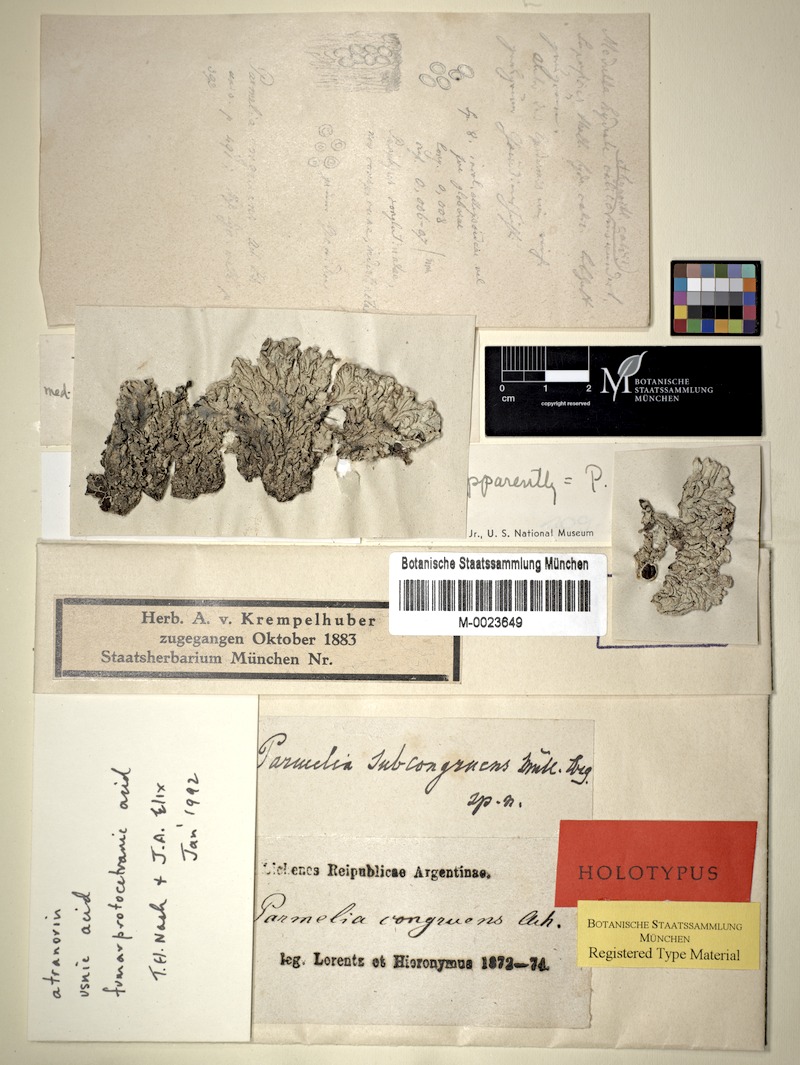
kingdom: Fungi
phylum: Ascomycota
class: Lecanoromycetes
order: Lecanorales
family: Parmeliaceae
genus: Psiloparmelia
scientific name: Psiloparmelia distincta
